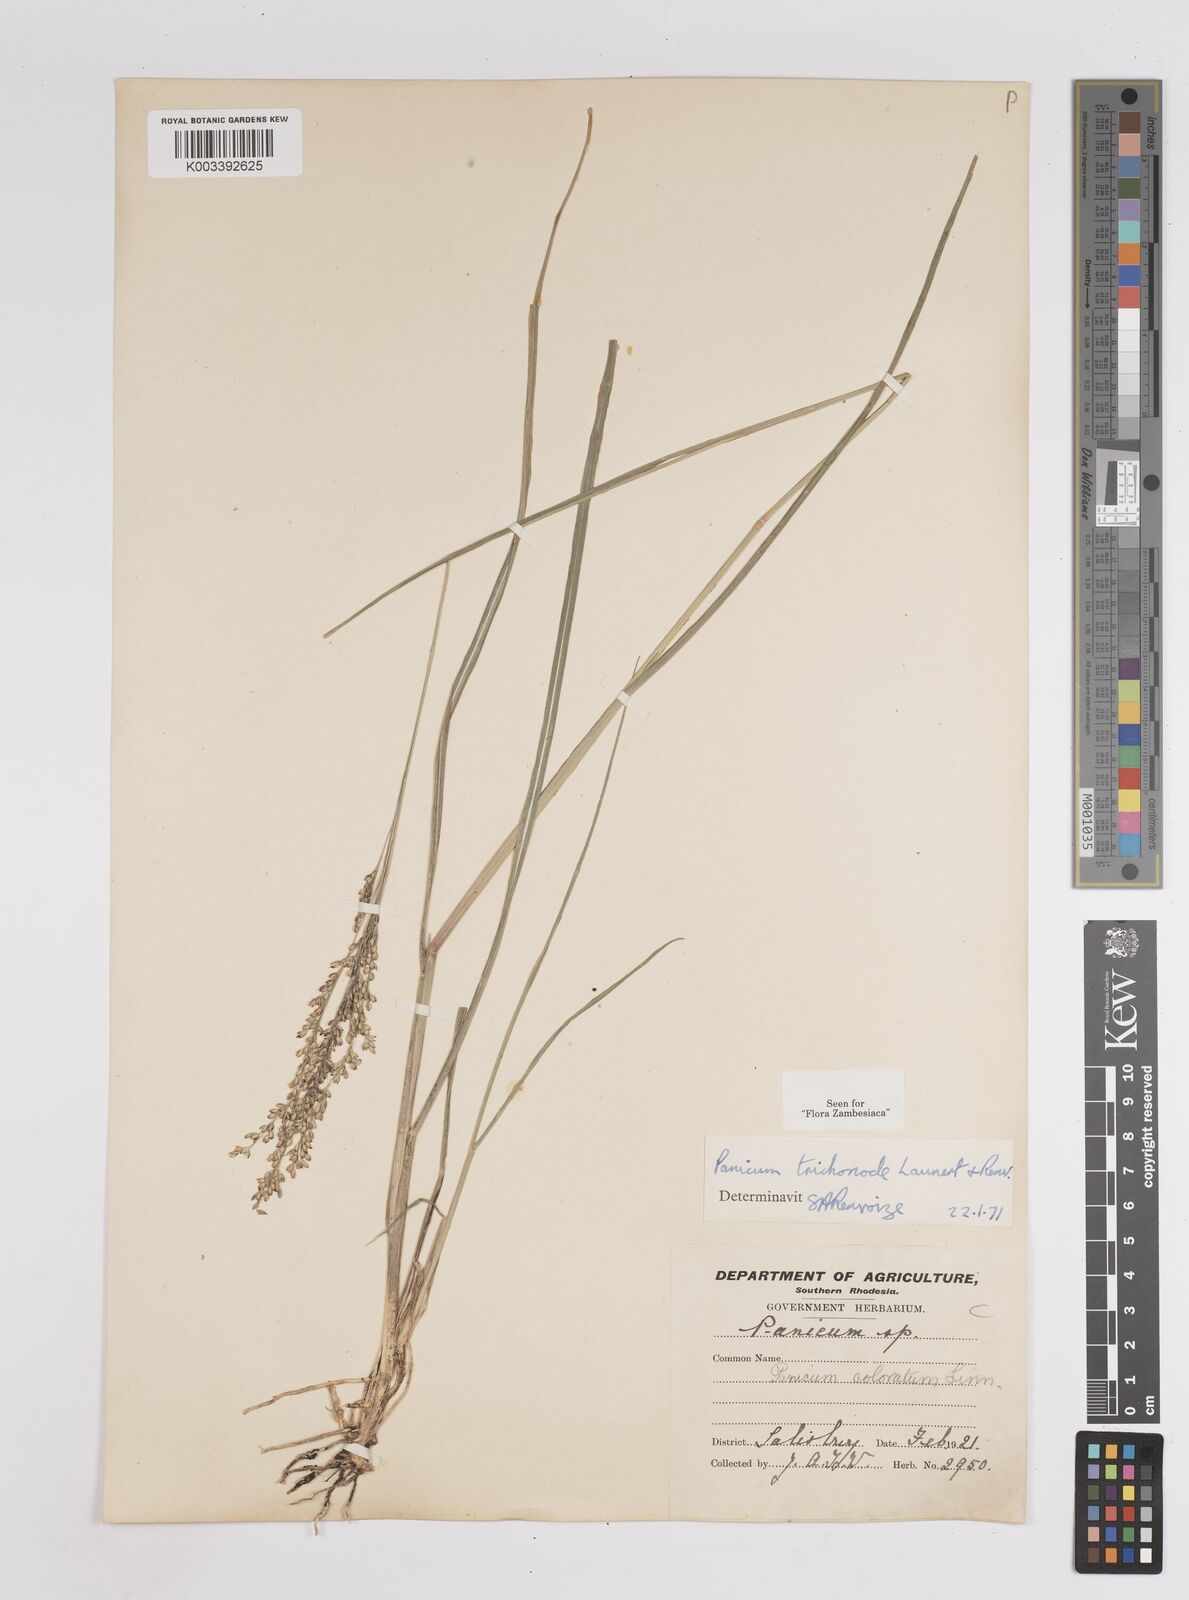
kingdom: Plantae
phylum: Tracheophyta
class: Liliopsida
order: Poales
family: Poaceae
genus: Panicum
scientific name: Panicum trichonode
